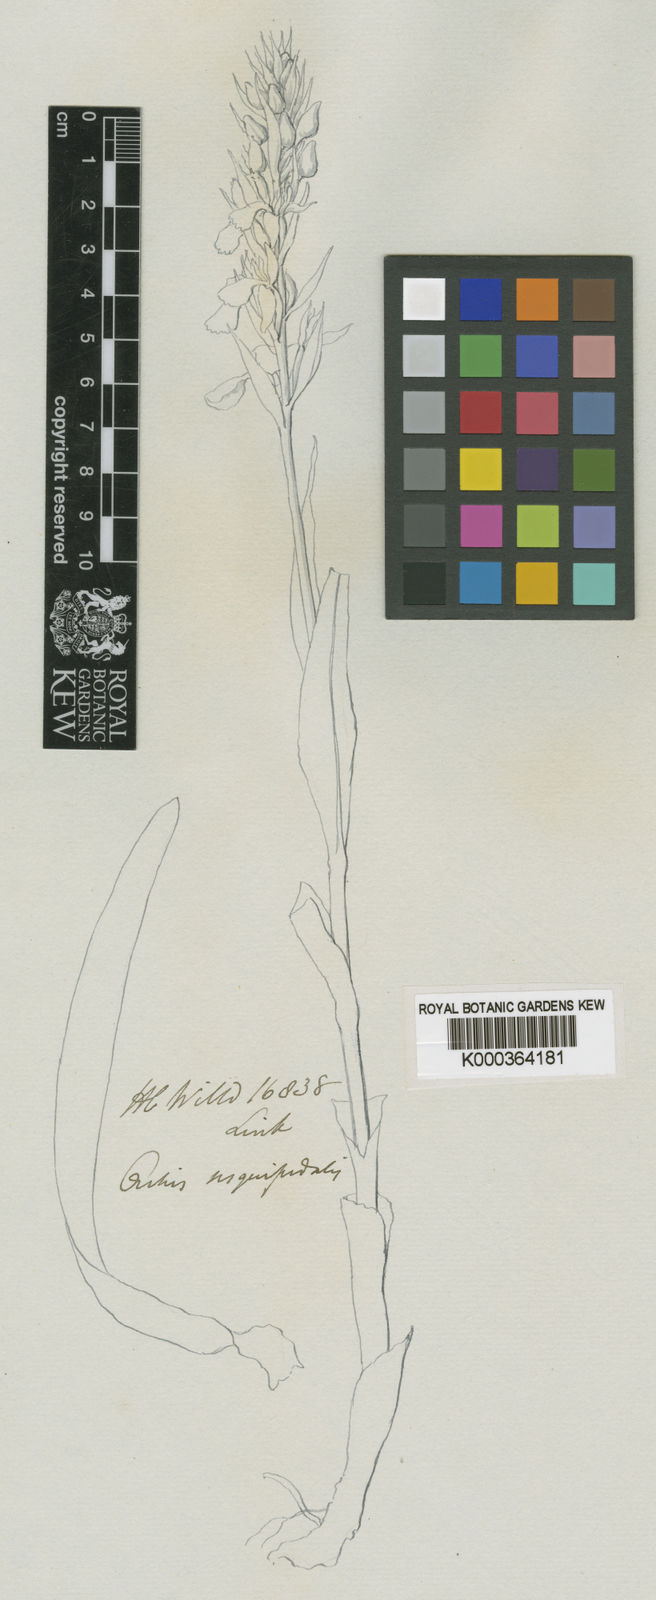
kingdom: Plantae
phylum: Tracheophyta
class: Liliopsida
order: Asparagales
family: Orchidaceae
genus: Dactylorhiza
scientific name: Dactylorhiza
